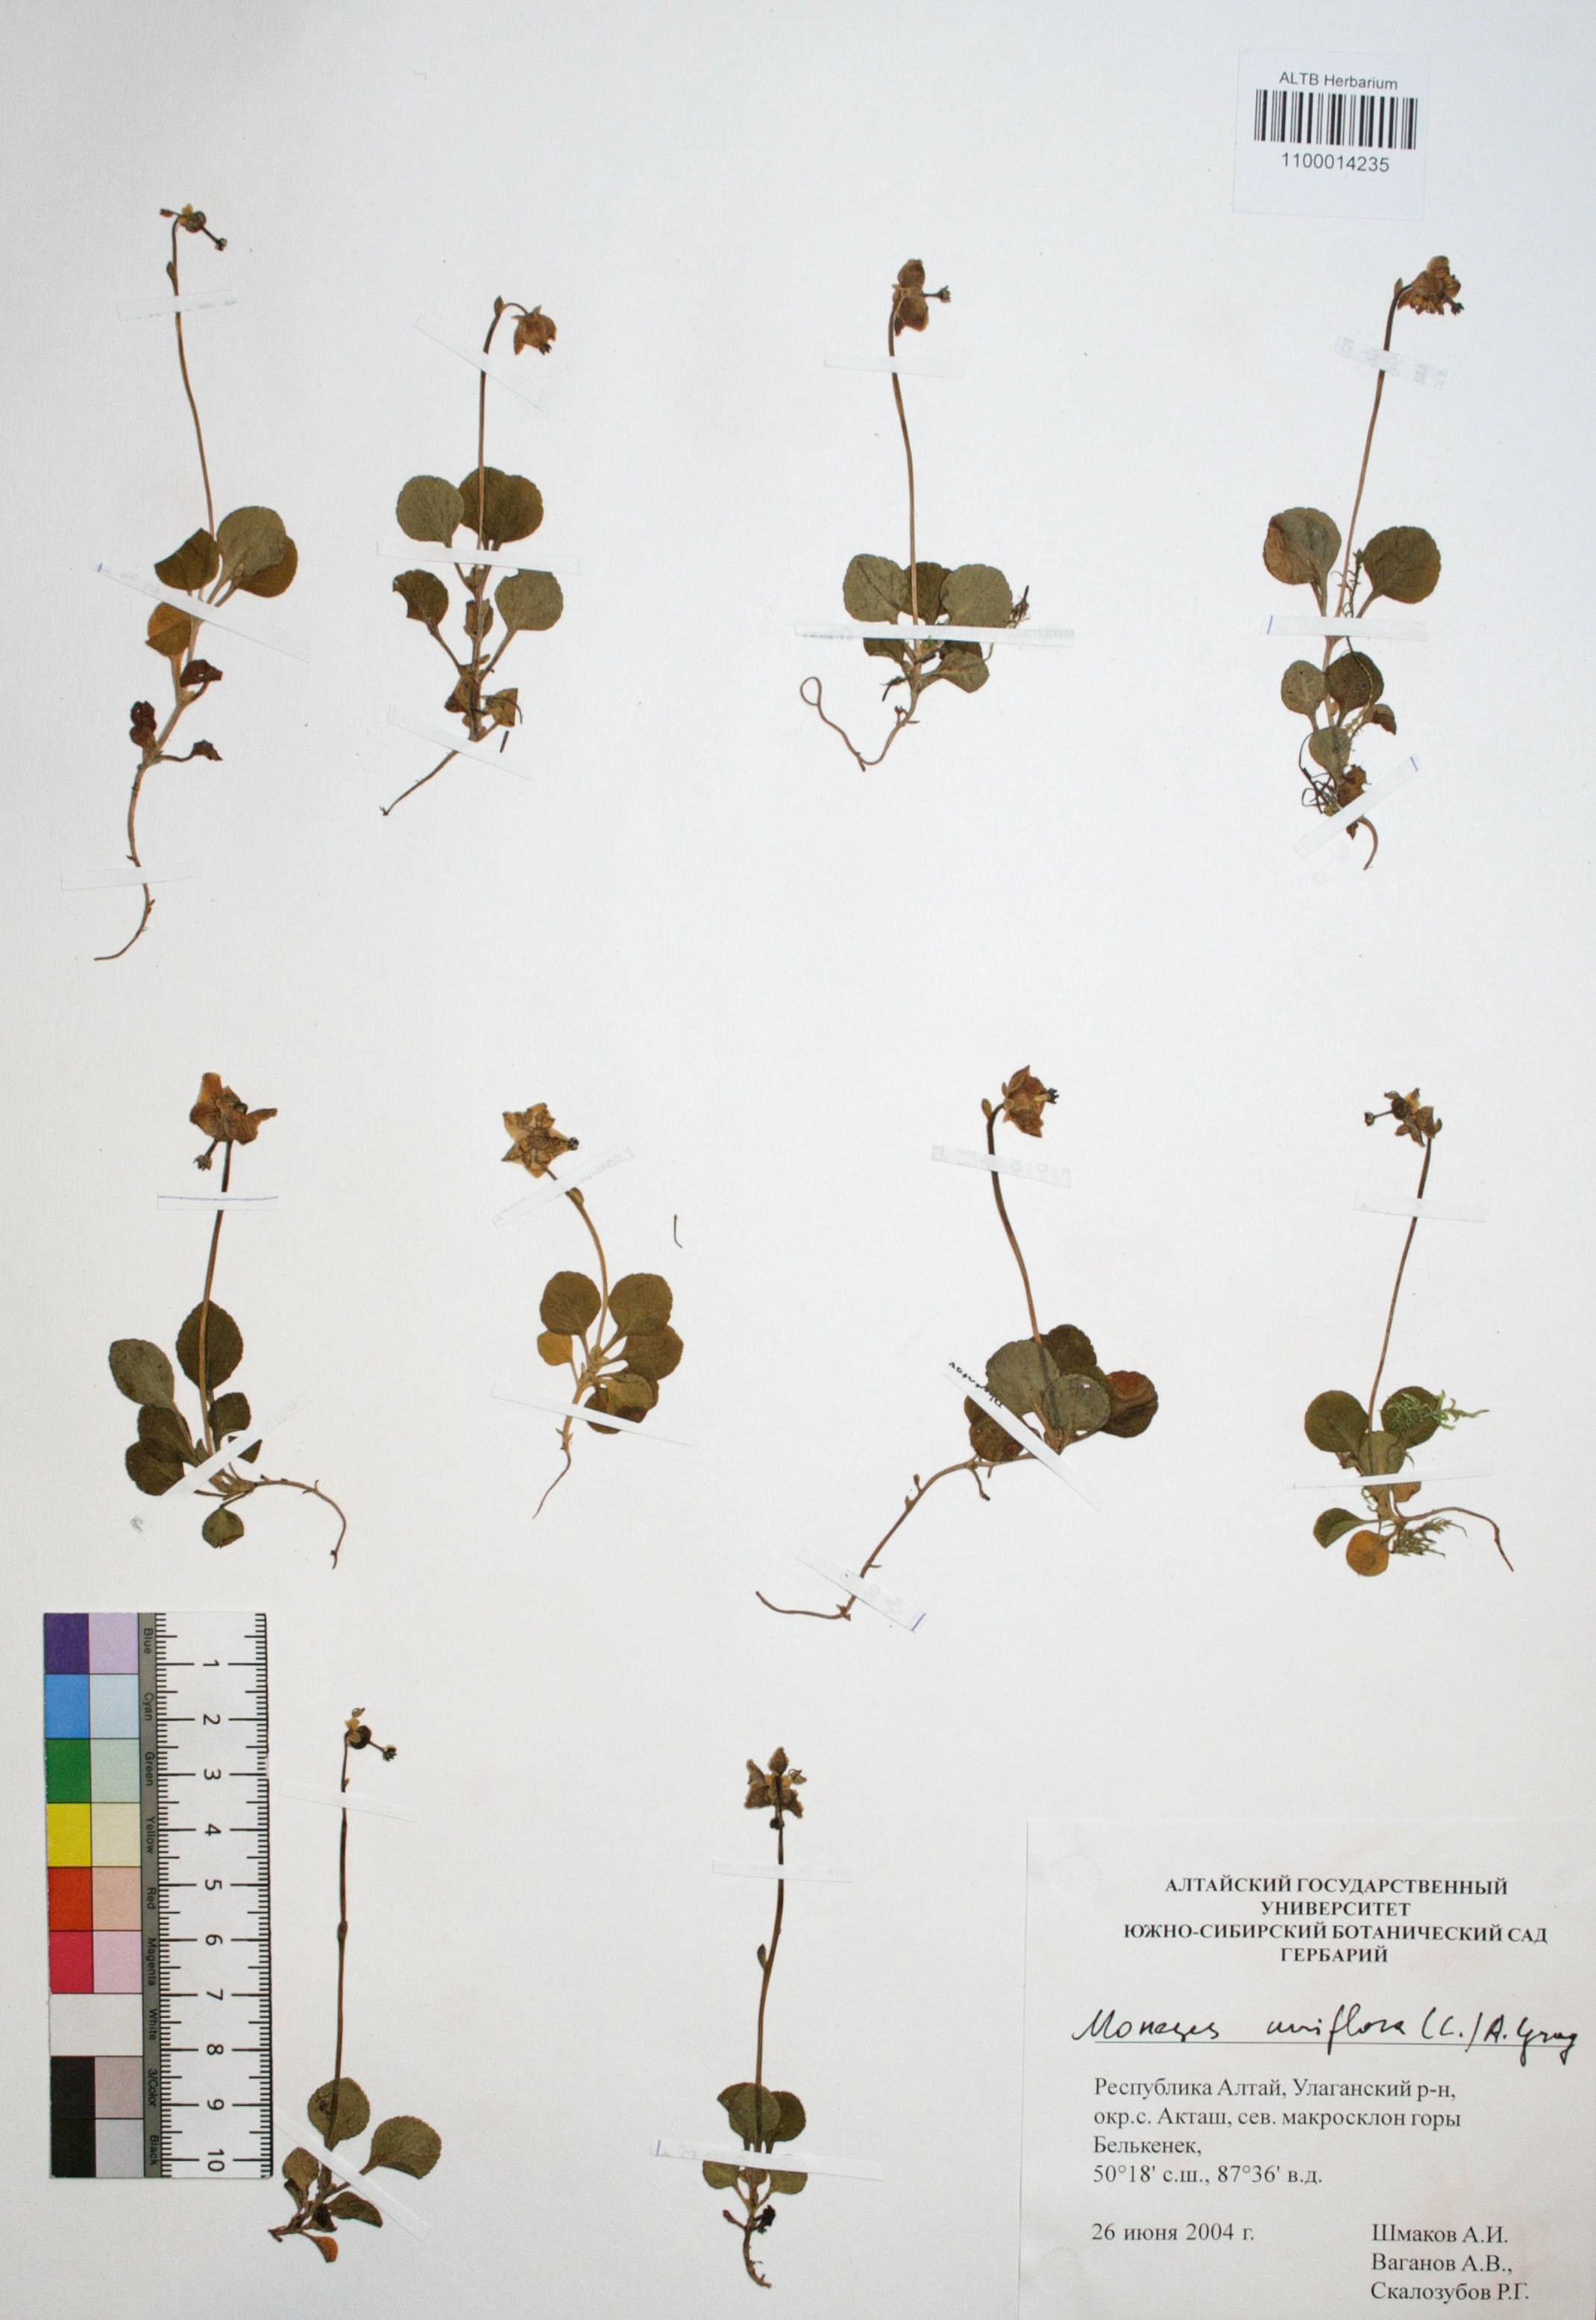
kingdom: Plantae
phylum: Tracheophyta
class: Magnoliopsida
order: Ericales
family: Ericaceae
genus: Moneses
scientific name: Moneses uniflora
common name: One-flowered wintergreen
